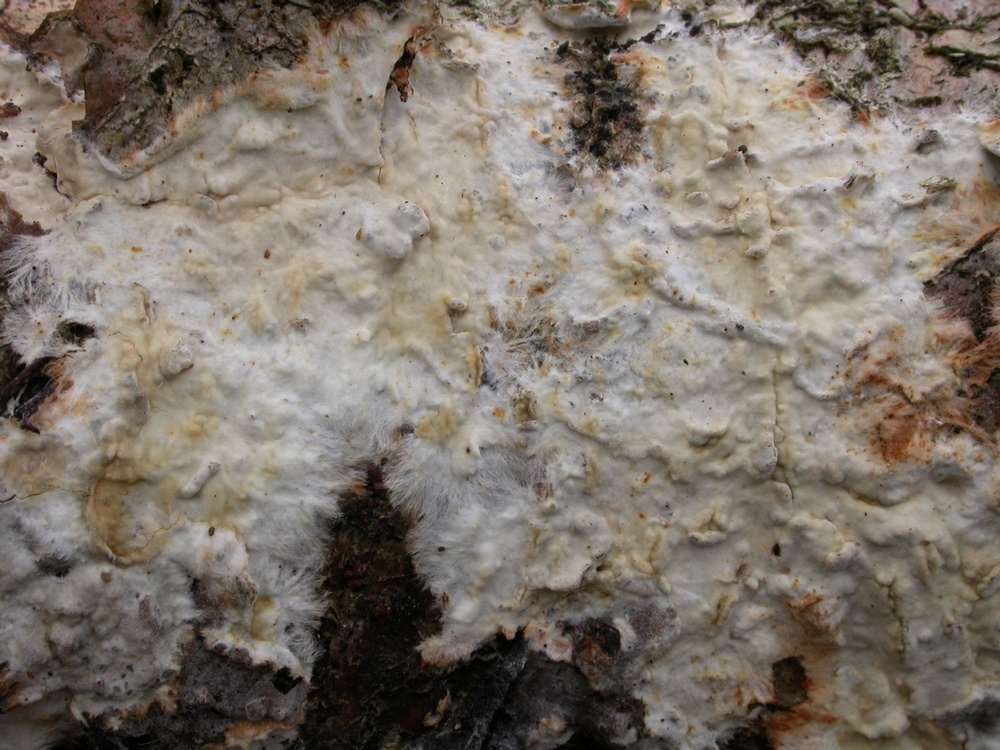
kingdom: Fungi
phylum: Basidiomycota
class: Agaricomycetes
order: Polyporales
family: Phanerochaetaceae
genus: Phanerochaete
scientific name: Phanerochaete velutina
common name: dunet randtråd
